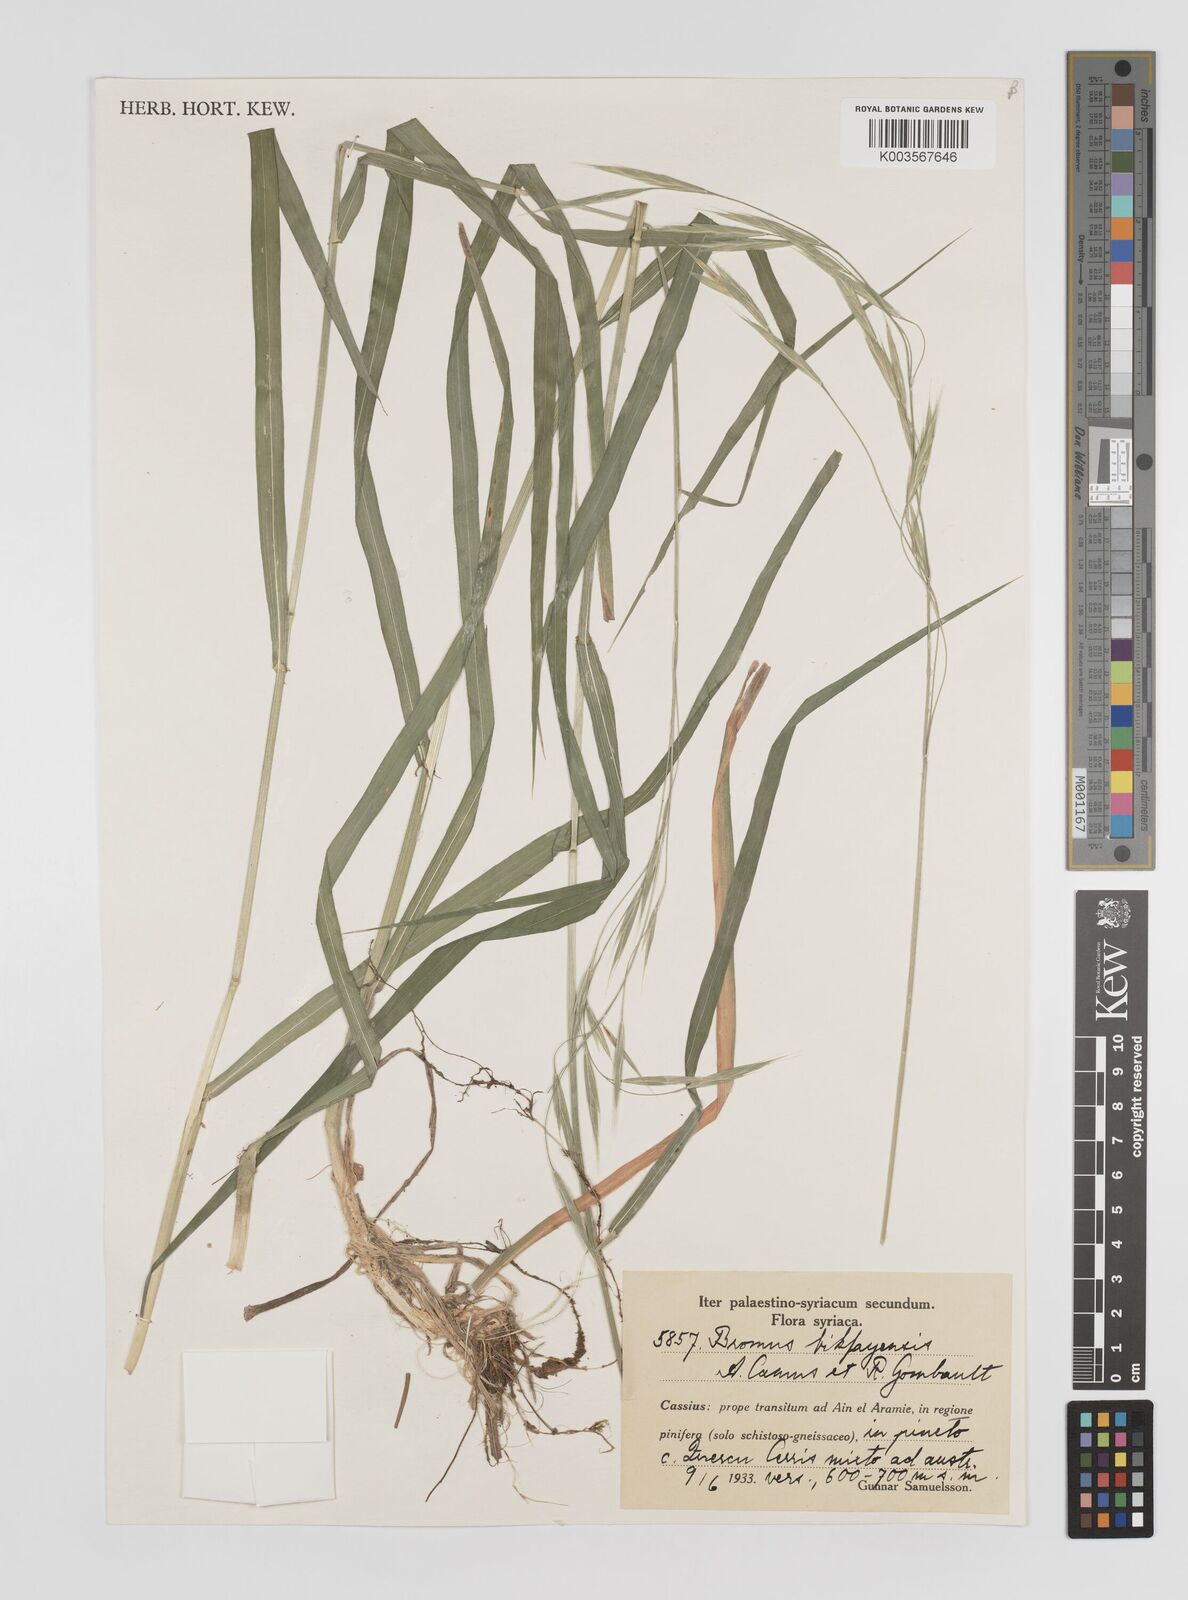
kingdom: Plantae
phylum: Tracheophyta
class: Liliopsida
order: Poales
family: Poaceae
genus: Bromus
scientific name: Bromus bikfayensis
